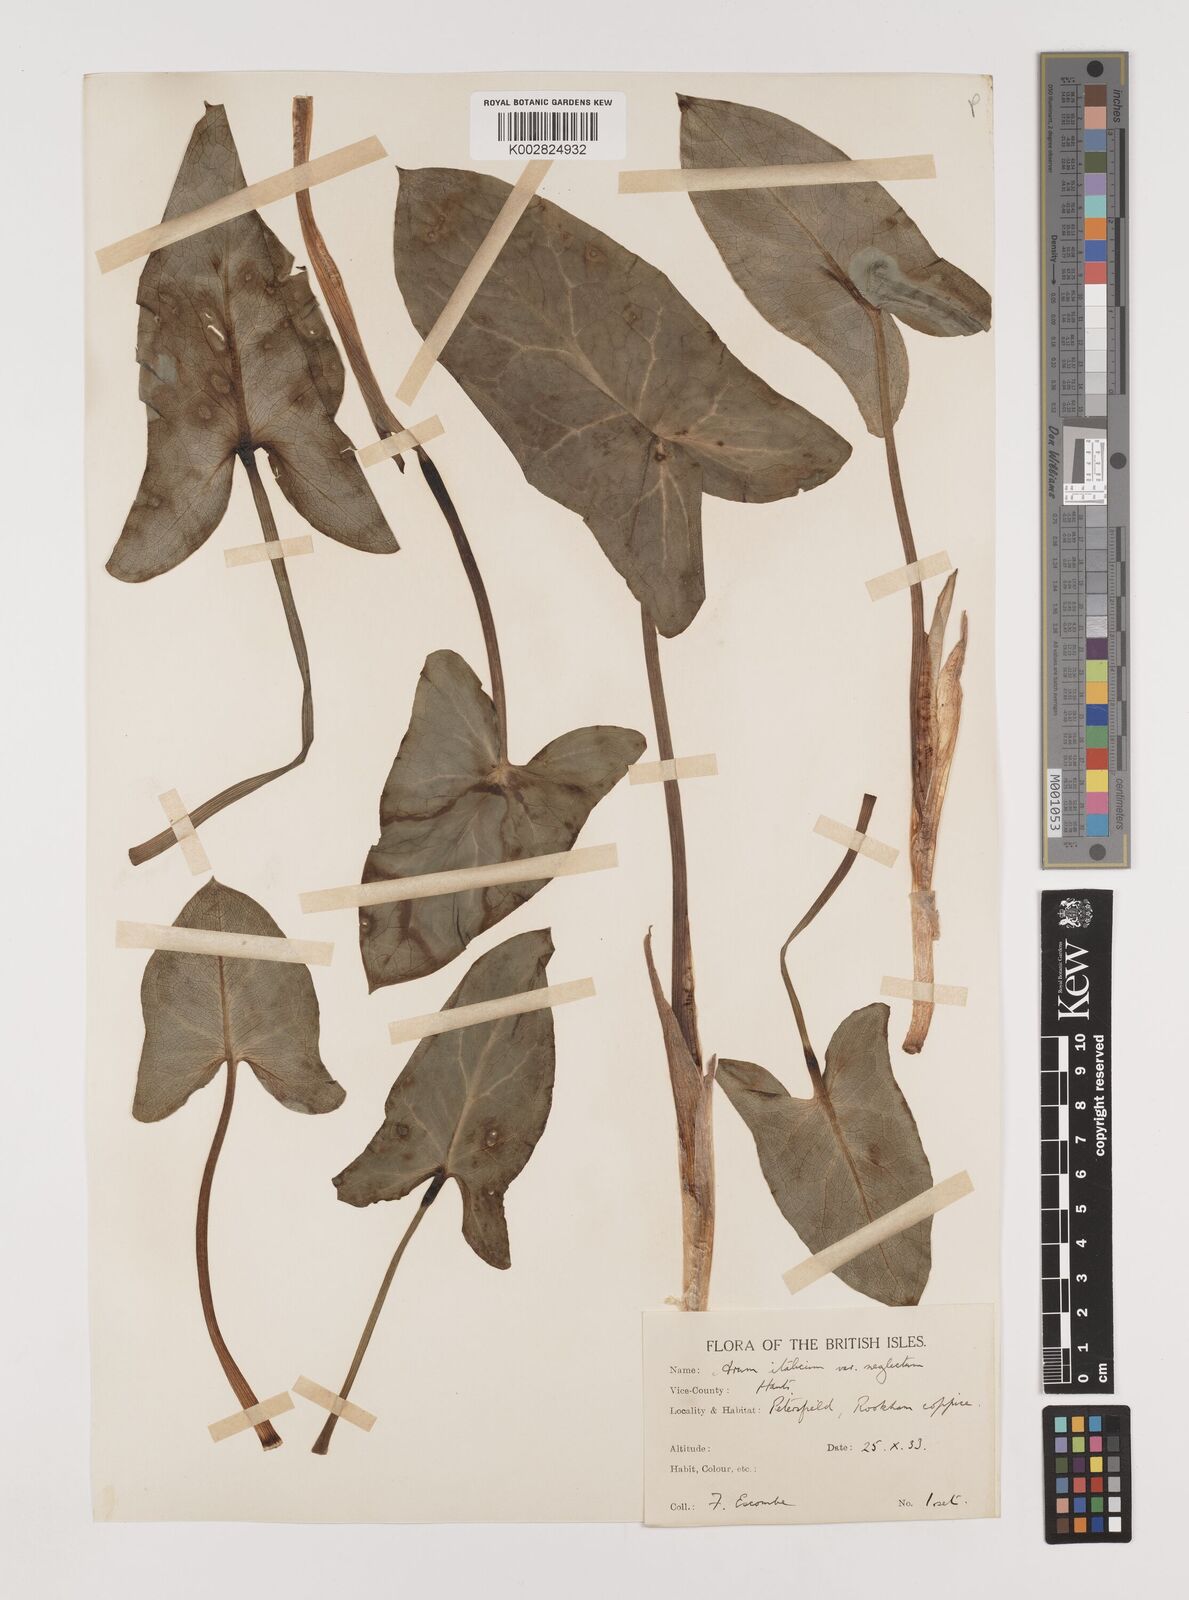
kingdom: Plantae
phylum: Tracheophyta
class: Liliopsida
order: Alismatales
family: Araceae
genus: Arum
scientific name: Arum italicum
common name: Italian lords-and-ladies
